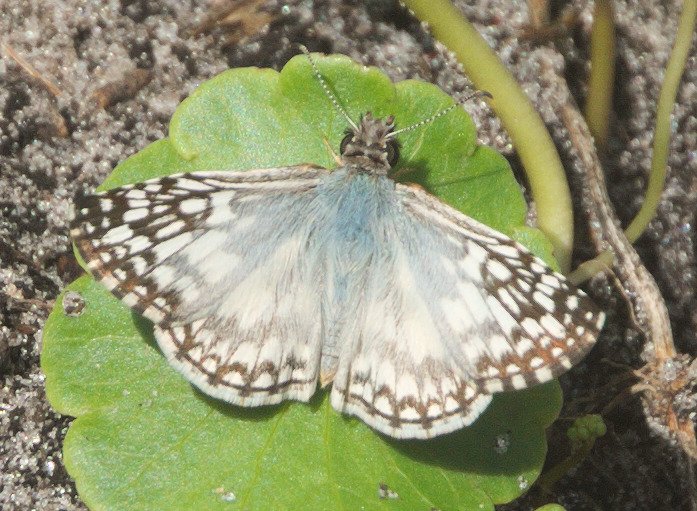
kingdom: Animalia
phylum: Arthropoda
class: Insecta
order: Lepidoptera
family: Hesperiidae
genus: Pyrgus
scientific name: Pyrgus oileus
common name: Tropical Checkered-Skipper
